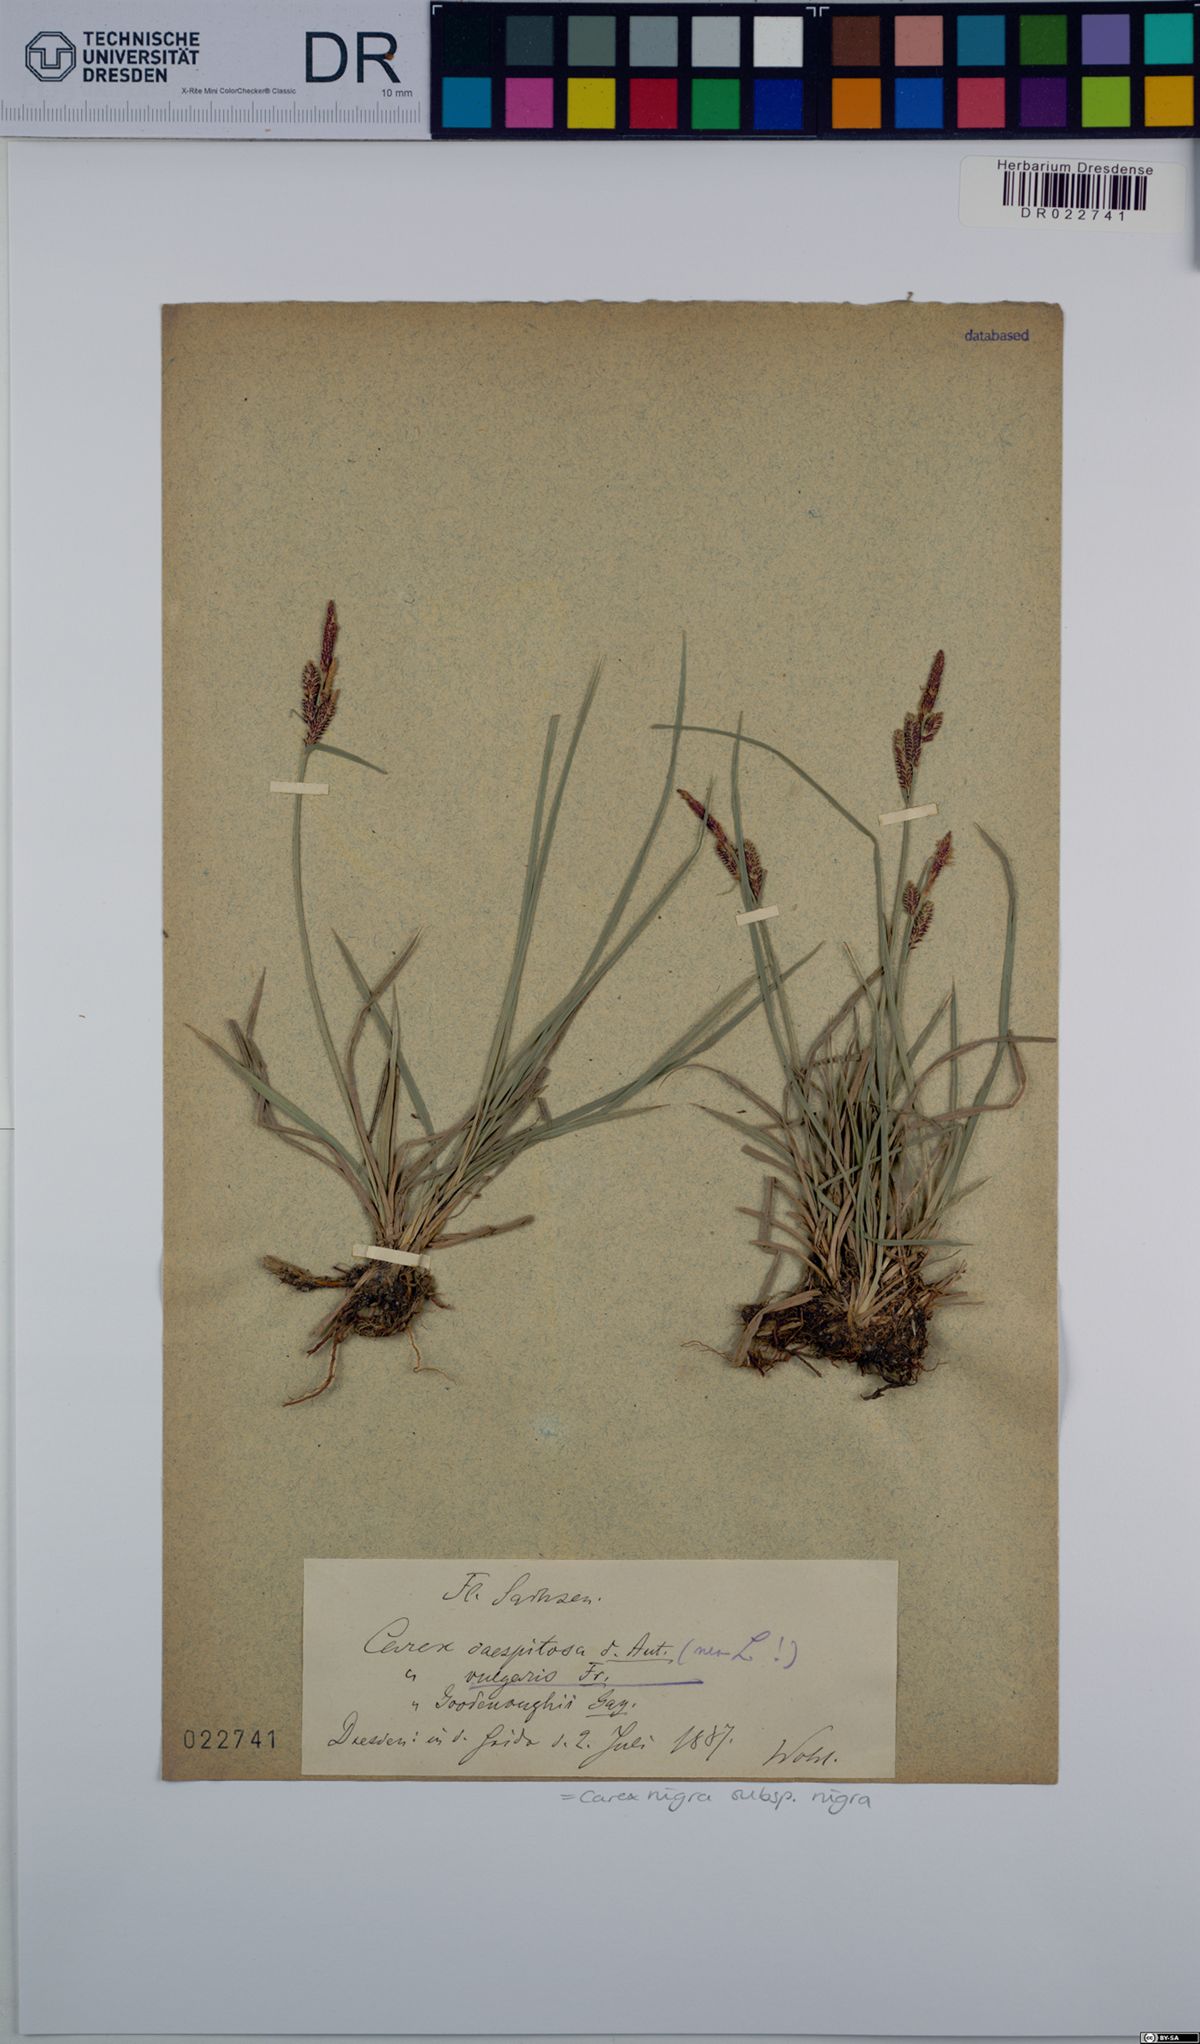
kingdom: Plantae
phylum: Tracheophyta
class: Liliopsida
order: Poales
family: Cyperaceae
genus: Carex
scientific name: Carex nigra
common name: Common sedge
